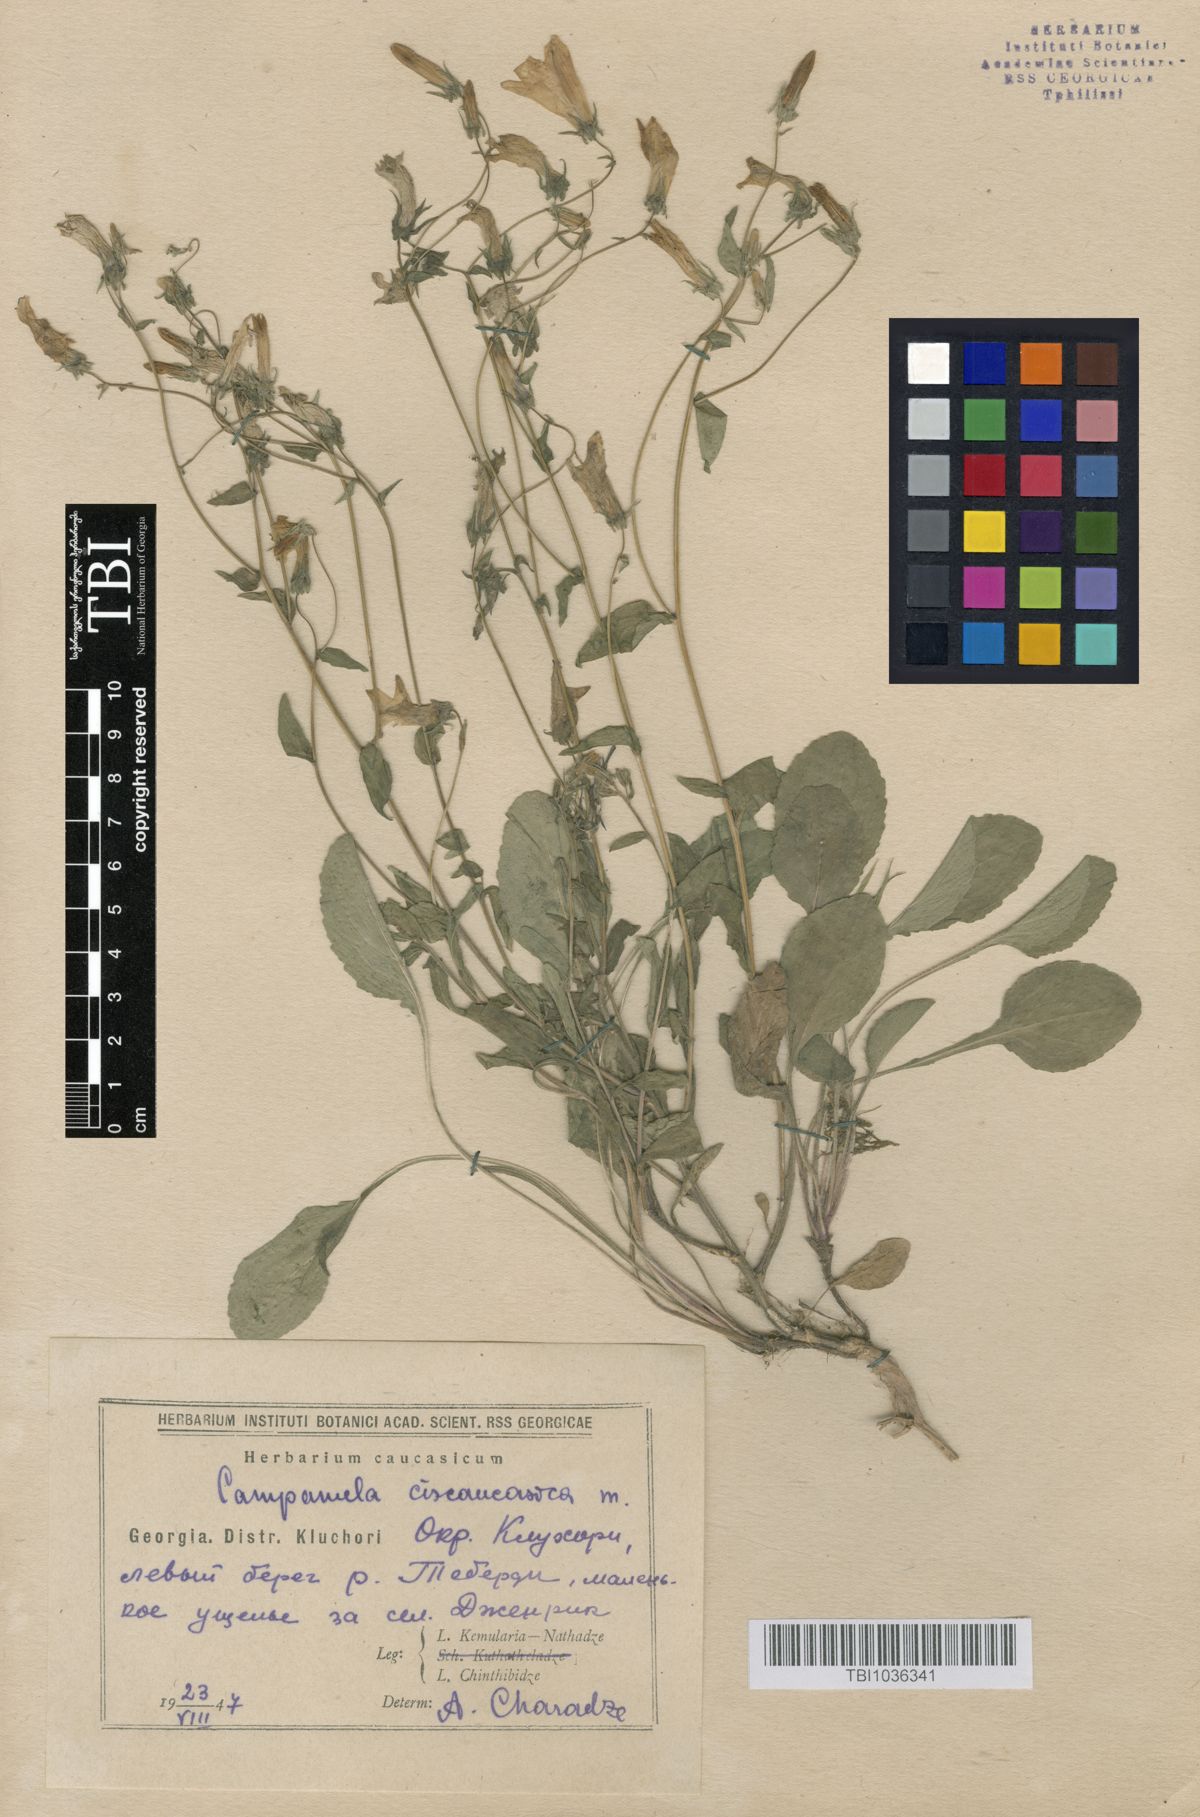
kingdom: Plantae
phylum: Tracheophyta
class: Magnoliopsida
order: Asterales
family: Campanulaceae
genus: Campanula
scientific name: Campanula sibirica
